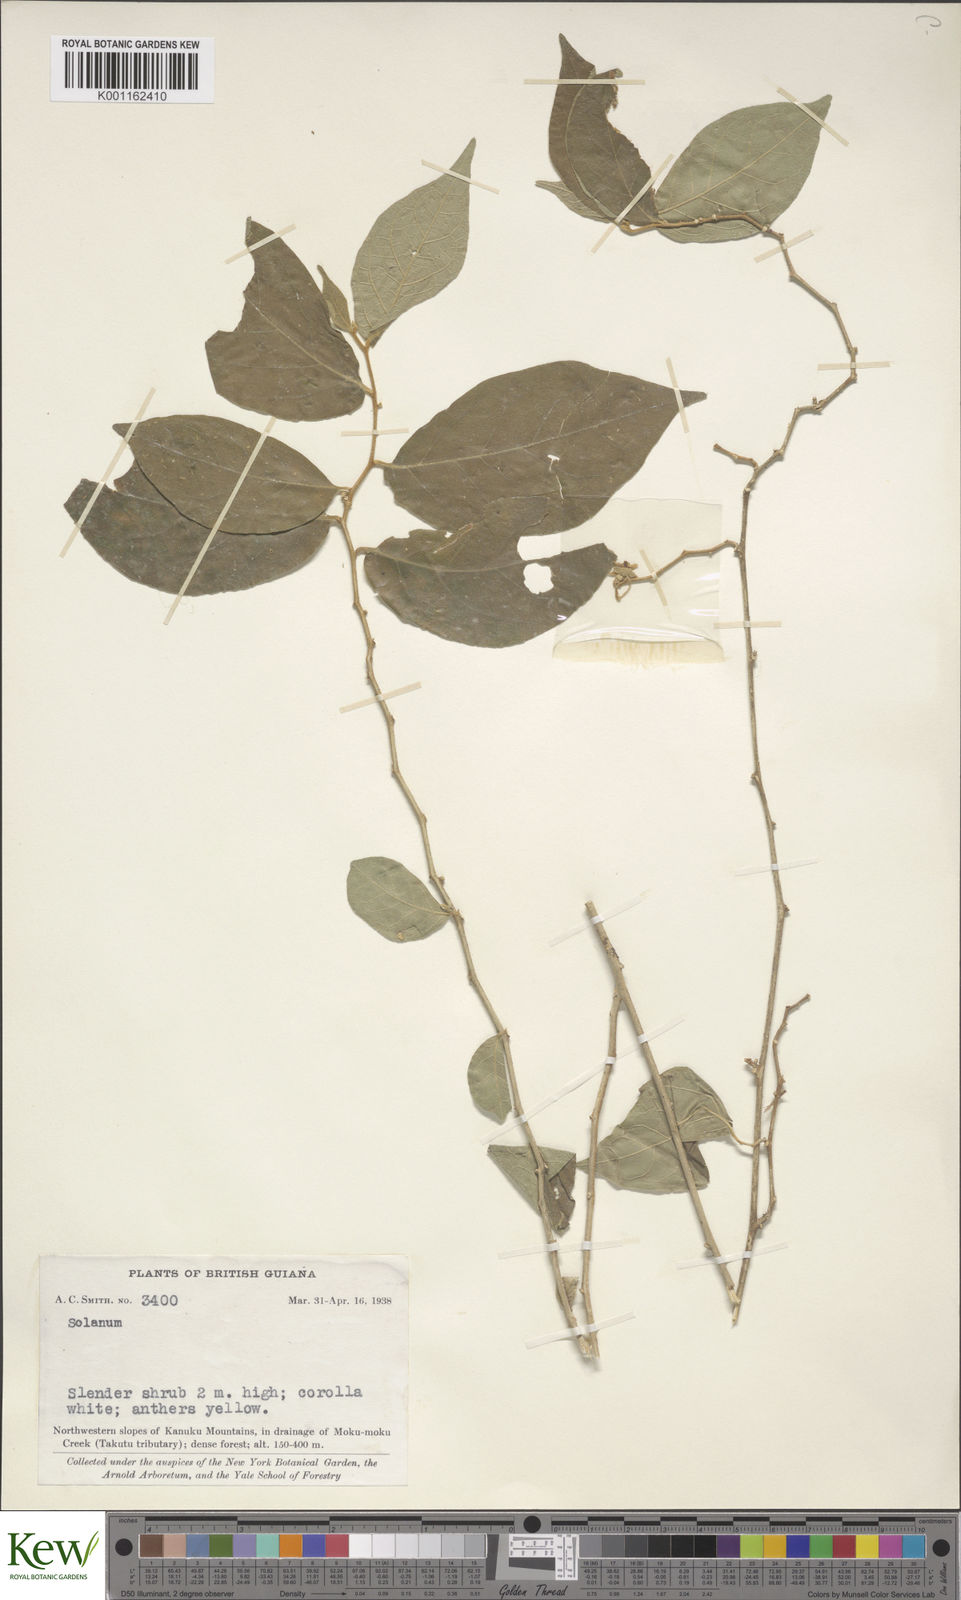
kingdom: Plantae
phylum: Tracheophyta
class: Magnoliopsida
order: Solanales
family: Solanaceae
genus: Solanum
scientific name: Solanum
